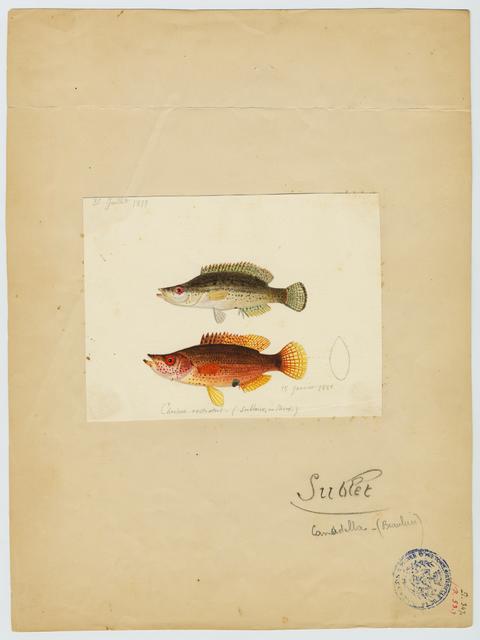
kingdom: Animalia
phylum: Chordata
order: Perciformes
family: Labridae
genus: Symphodus
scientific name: Symphodus rostratus
